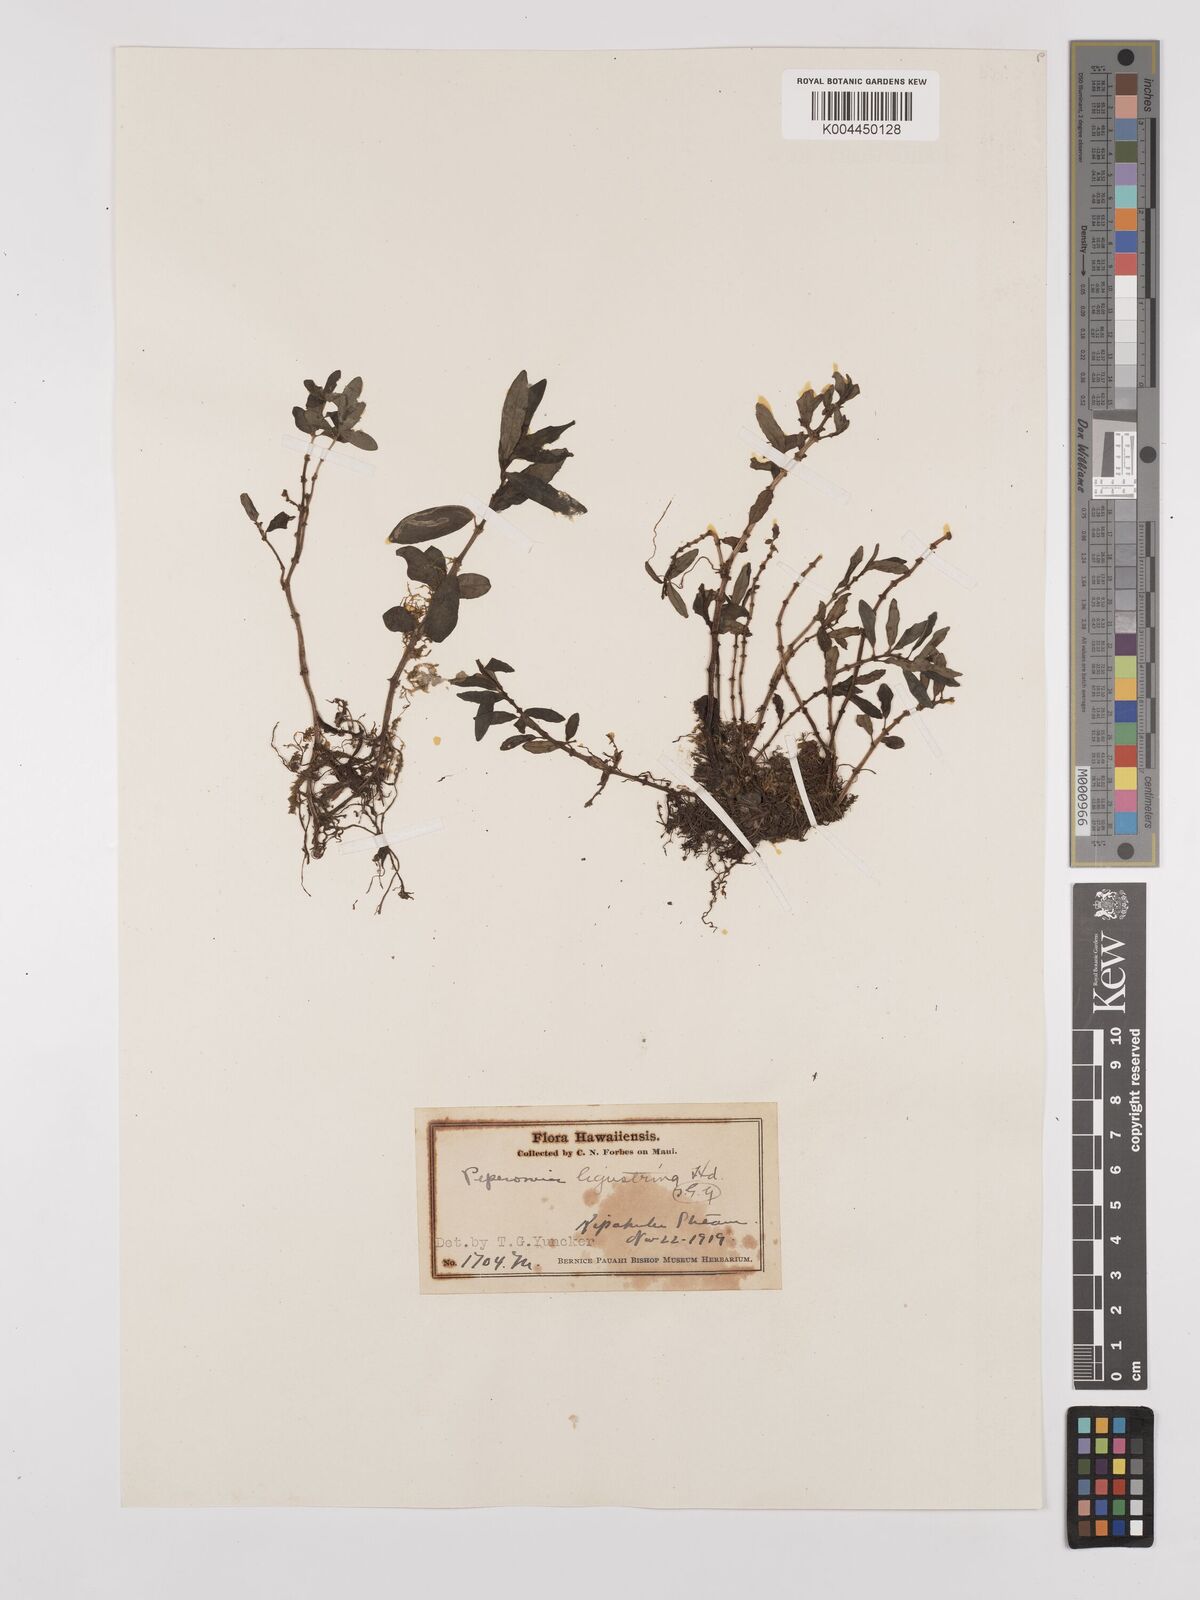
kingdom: Plantae
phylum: Tracheophyta
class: Magnoliopsida
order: Piperales
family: Piperaceae
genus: Peperomia
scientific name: Peperomia ligustrina
